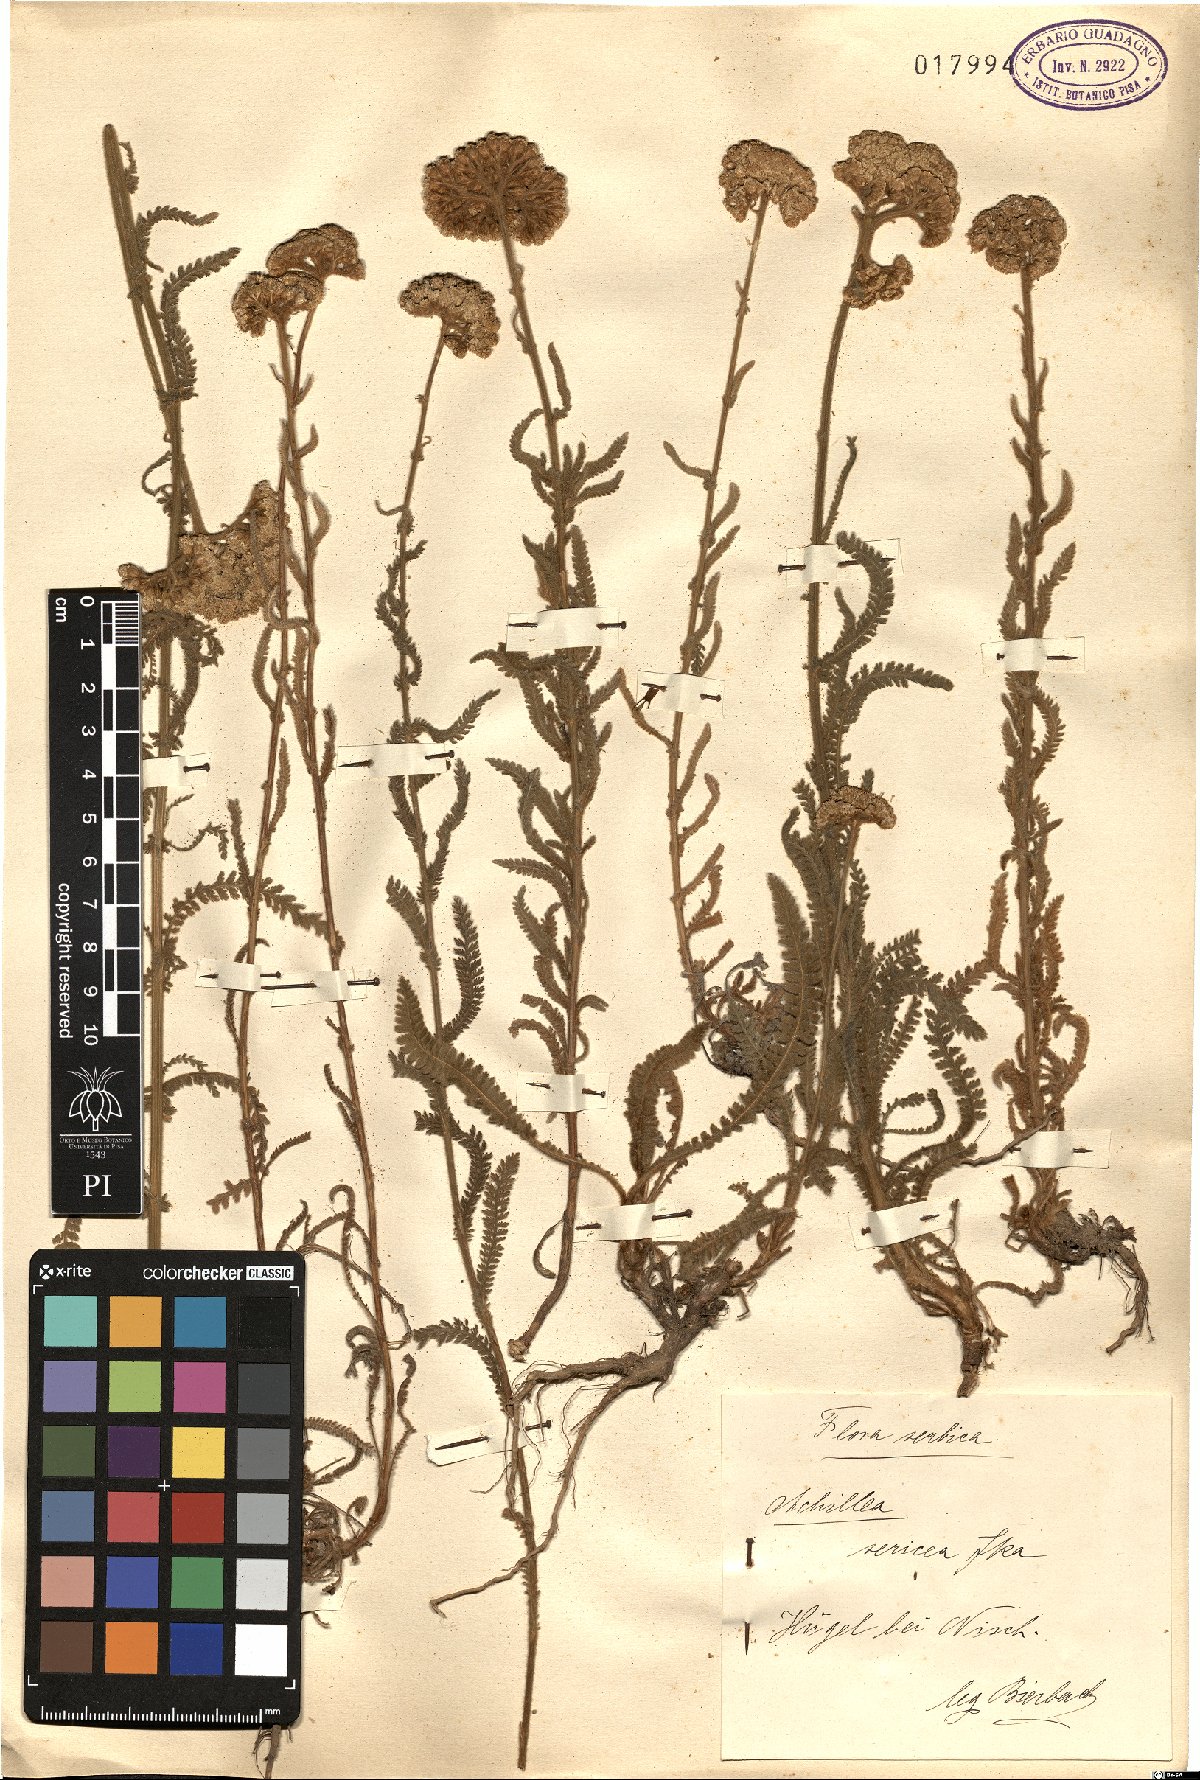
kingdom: Plantae
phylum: Tracheophyta
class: Magnoliopsida
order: Asterales
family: Asteraceae
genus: Achillea
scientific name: Achillea clypeolata
